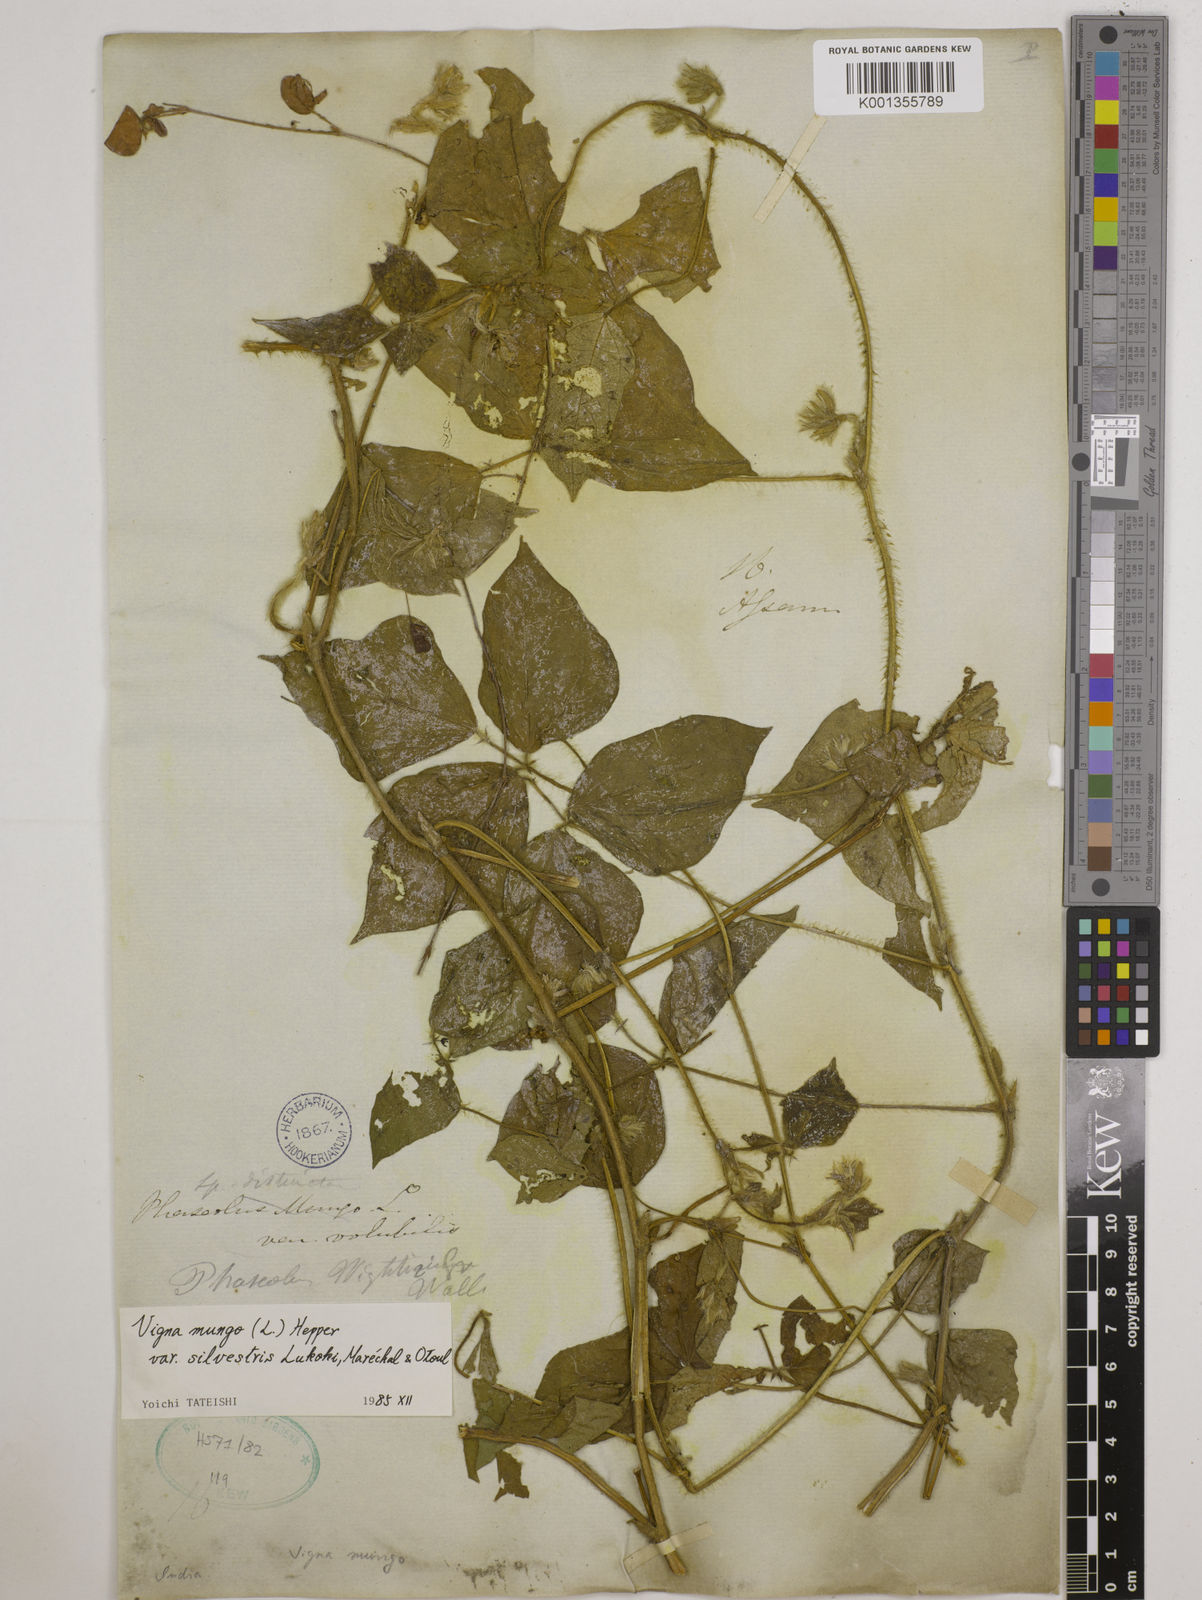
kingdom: Plantae
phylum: Tracheophyta
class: Magnoliopsida
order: Fabales
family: Fabaceae
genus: Vigna
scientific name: Vigna mungo
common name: Black gram
